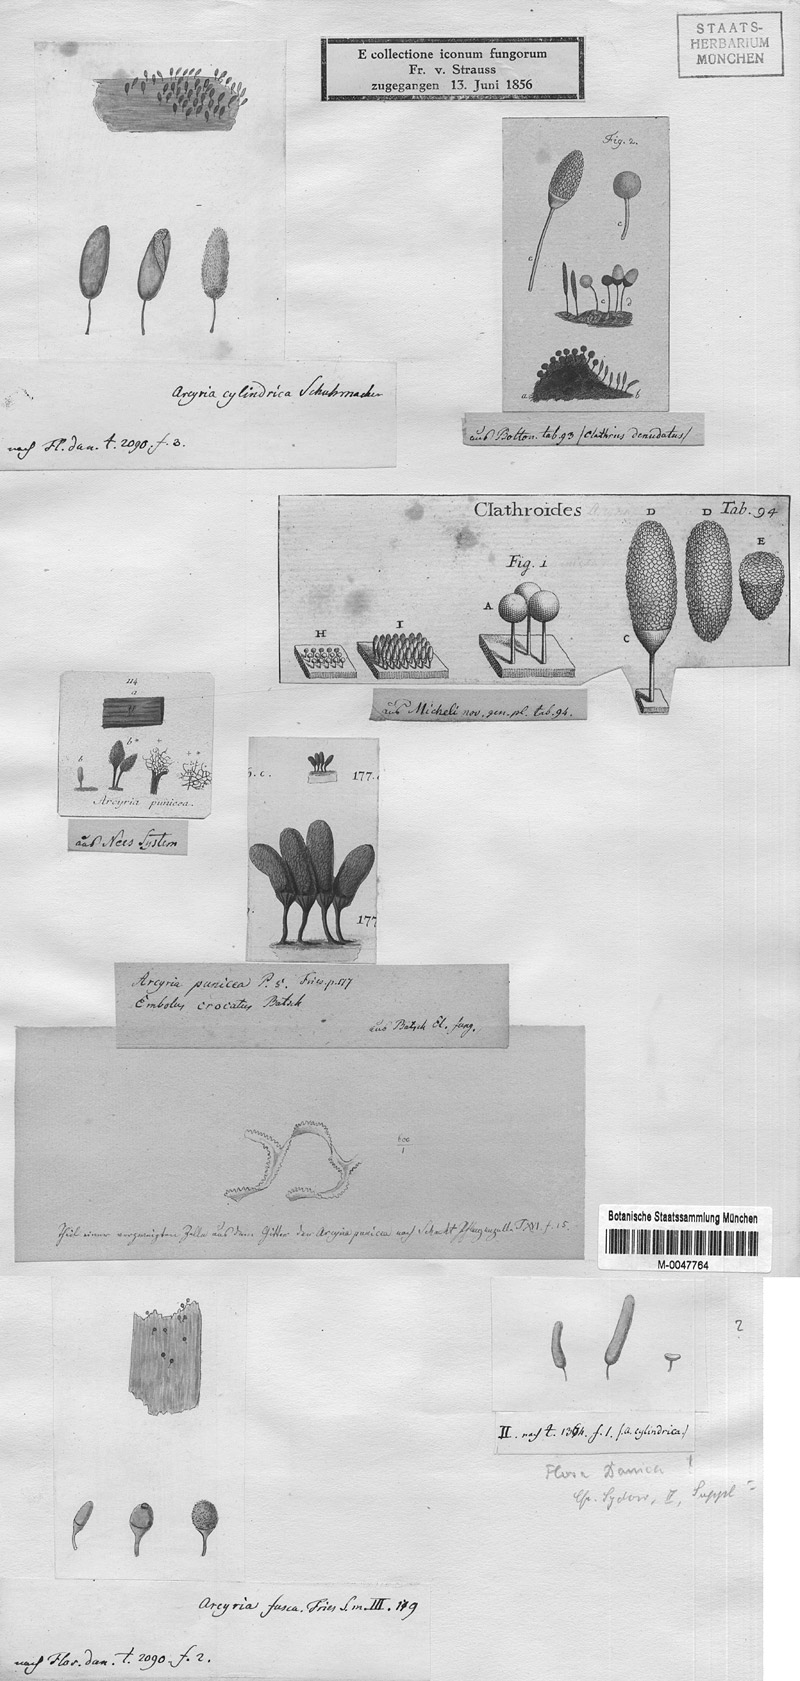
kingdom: Protozoa
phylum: Mycetozoa
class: Myxomycetes
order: Trichiales
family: Arcyriaceae
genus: Arcyria
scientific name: Arcyria denudata
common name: Carnival candy slime mold
